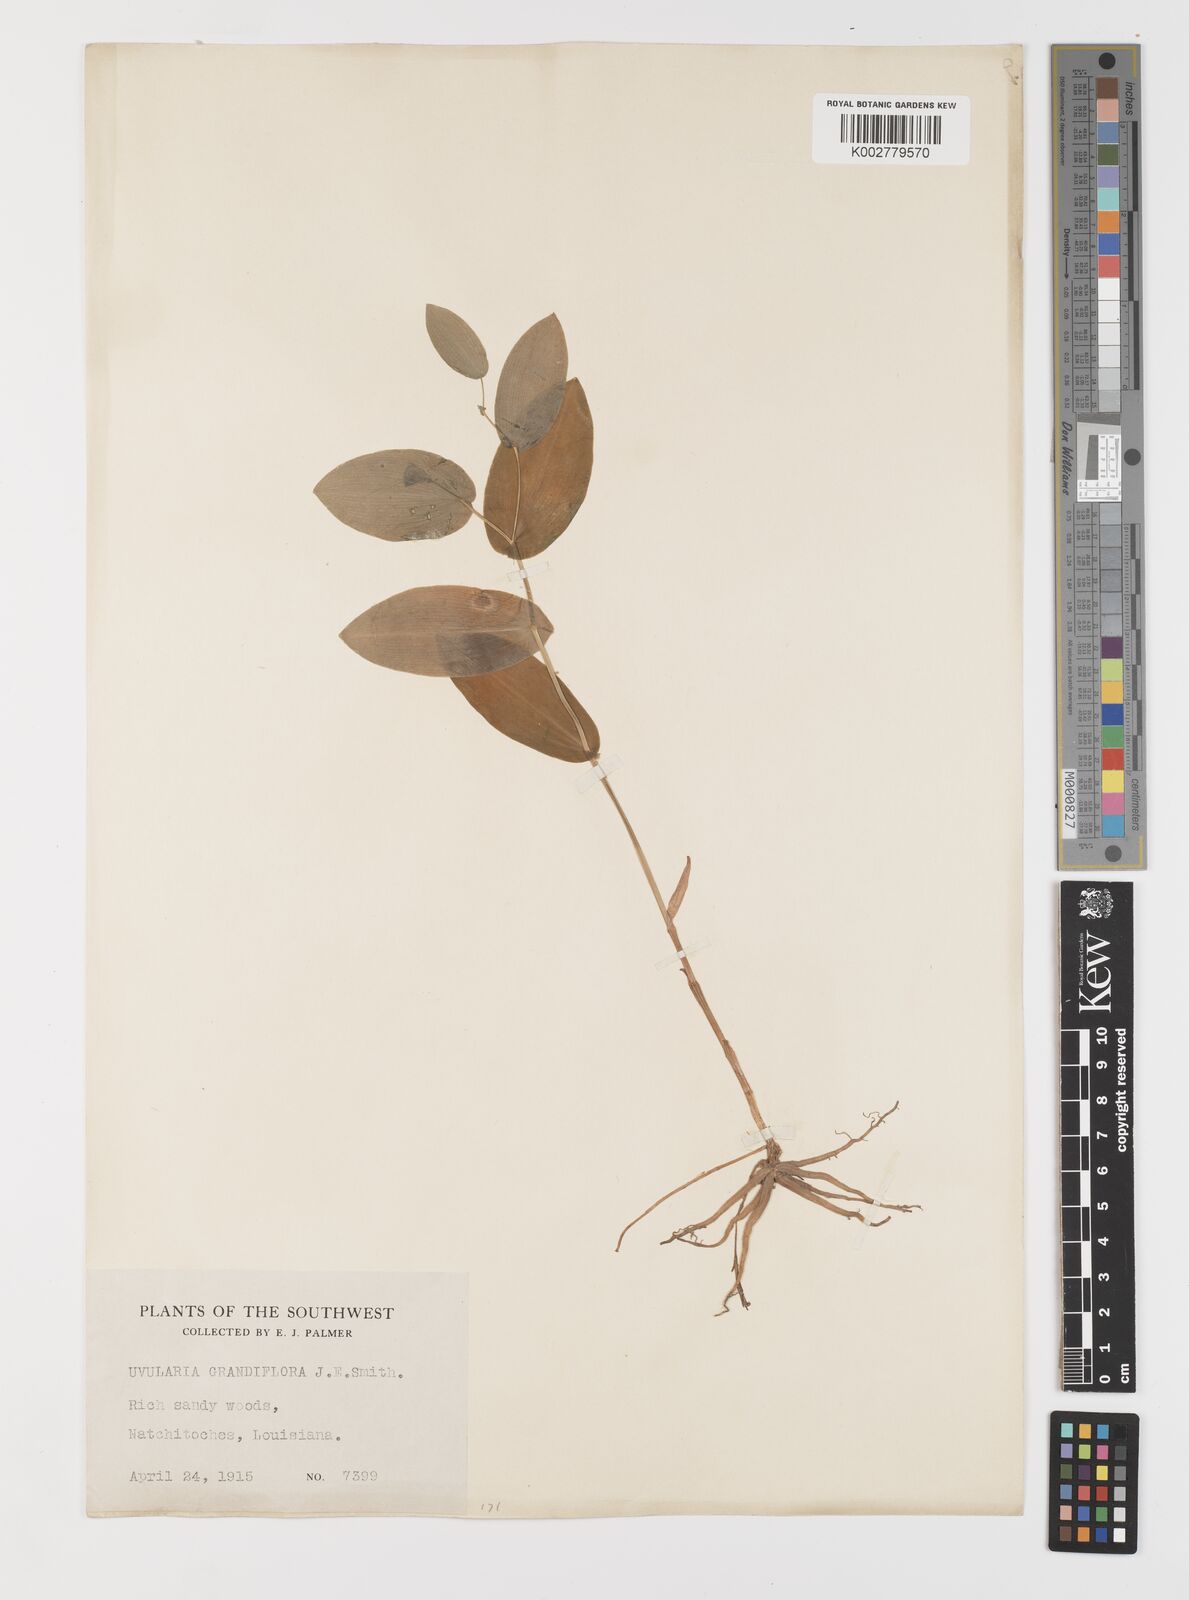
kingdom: Plantae
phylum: Tracheophyta
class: Liliopsida
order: Liliales
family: Colchicaceae
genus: Uvularia
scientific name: Uvularia grandiflora
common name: Bellwort
